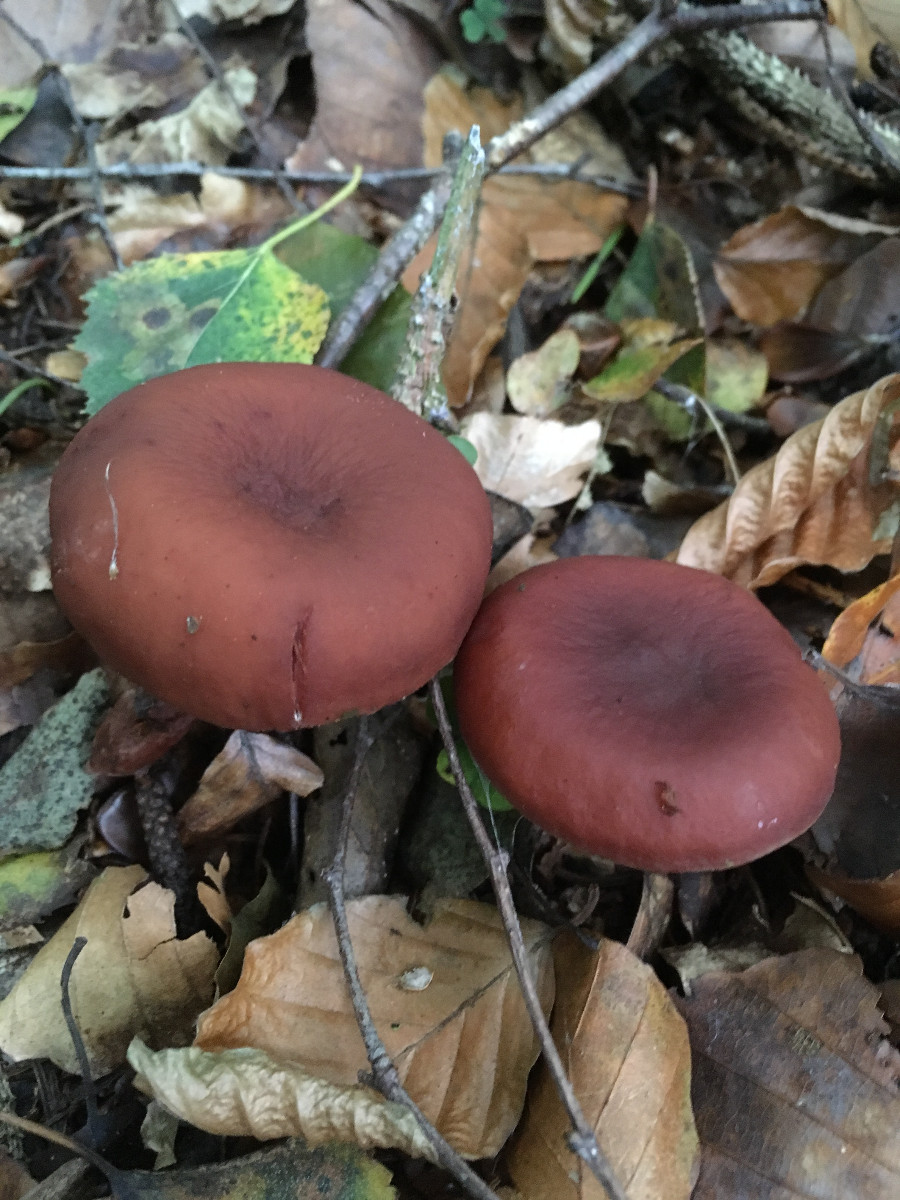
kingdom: Fungi
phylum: Basidiomycota
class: Agaricomycetes
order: Russulales
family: Russulaceae
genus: Lactarius
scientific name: Lactarius camphoratus
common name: kamfer-mælkehat
